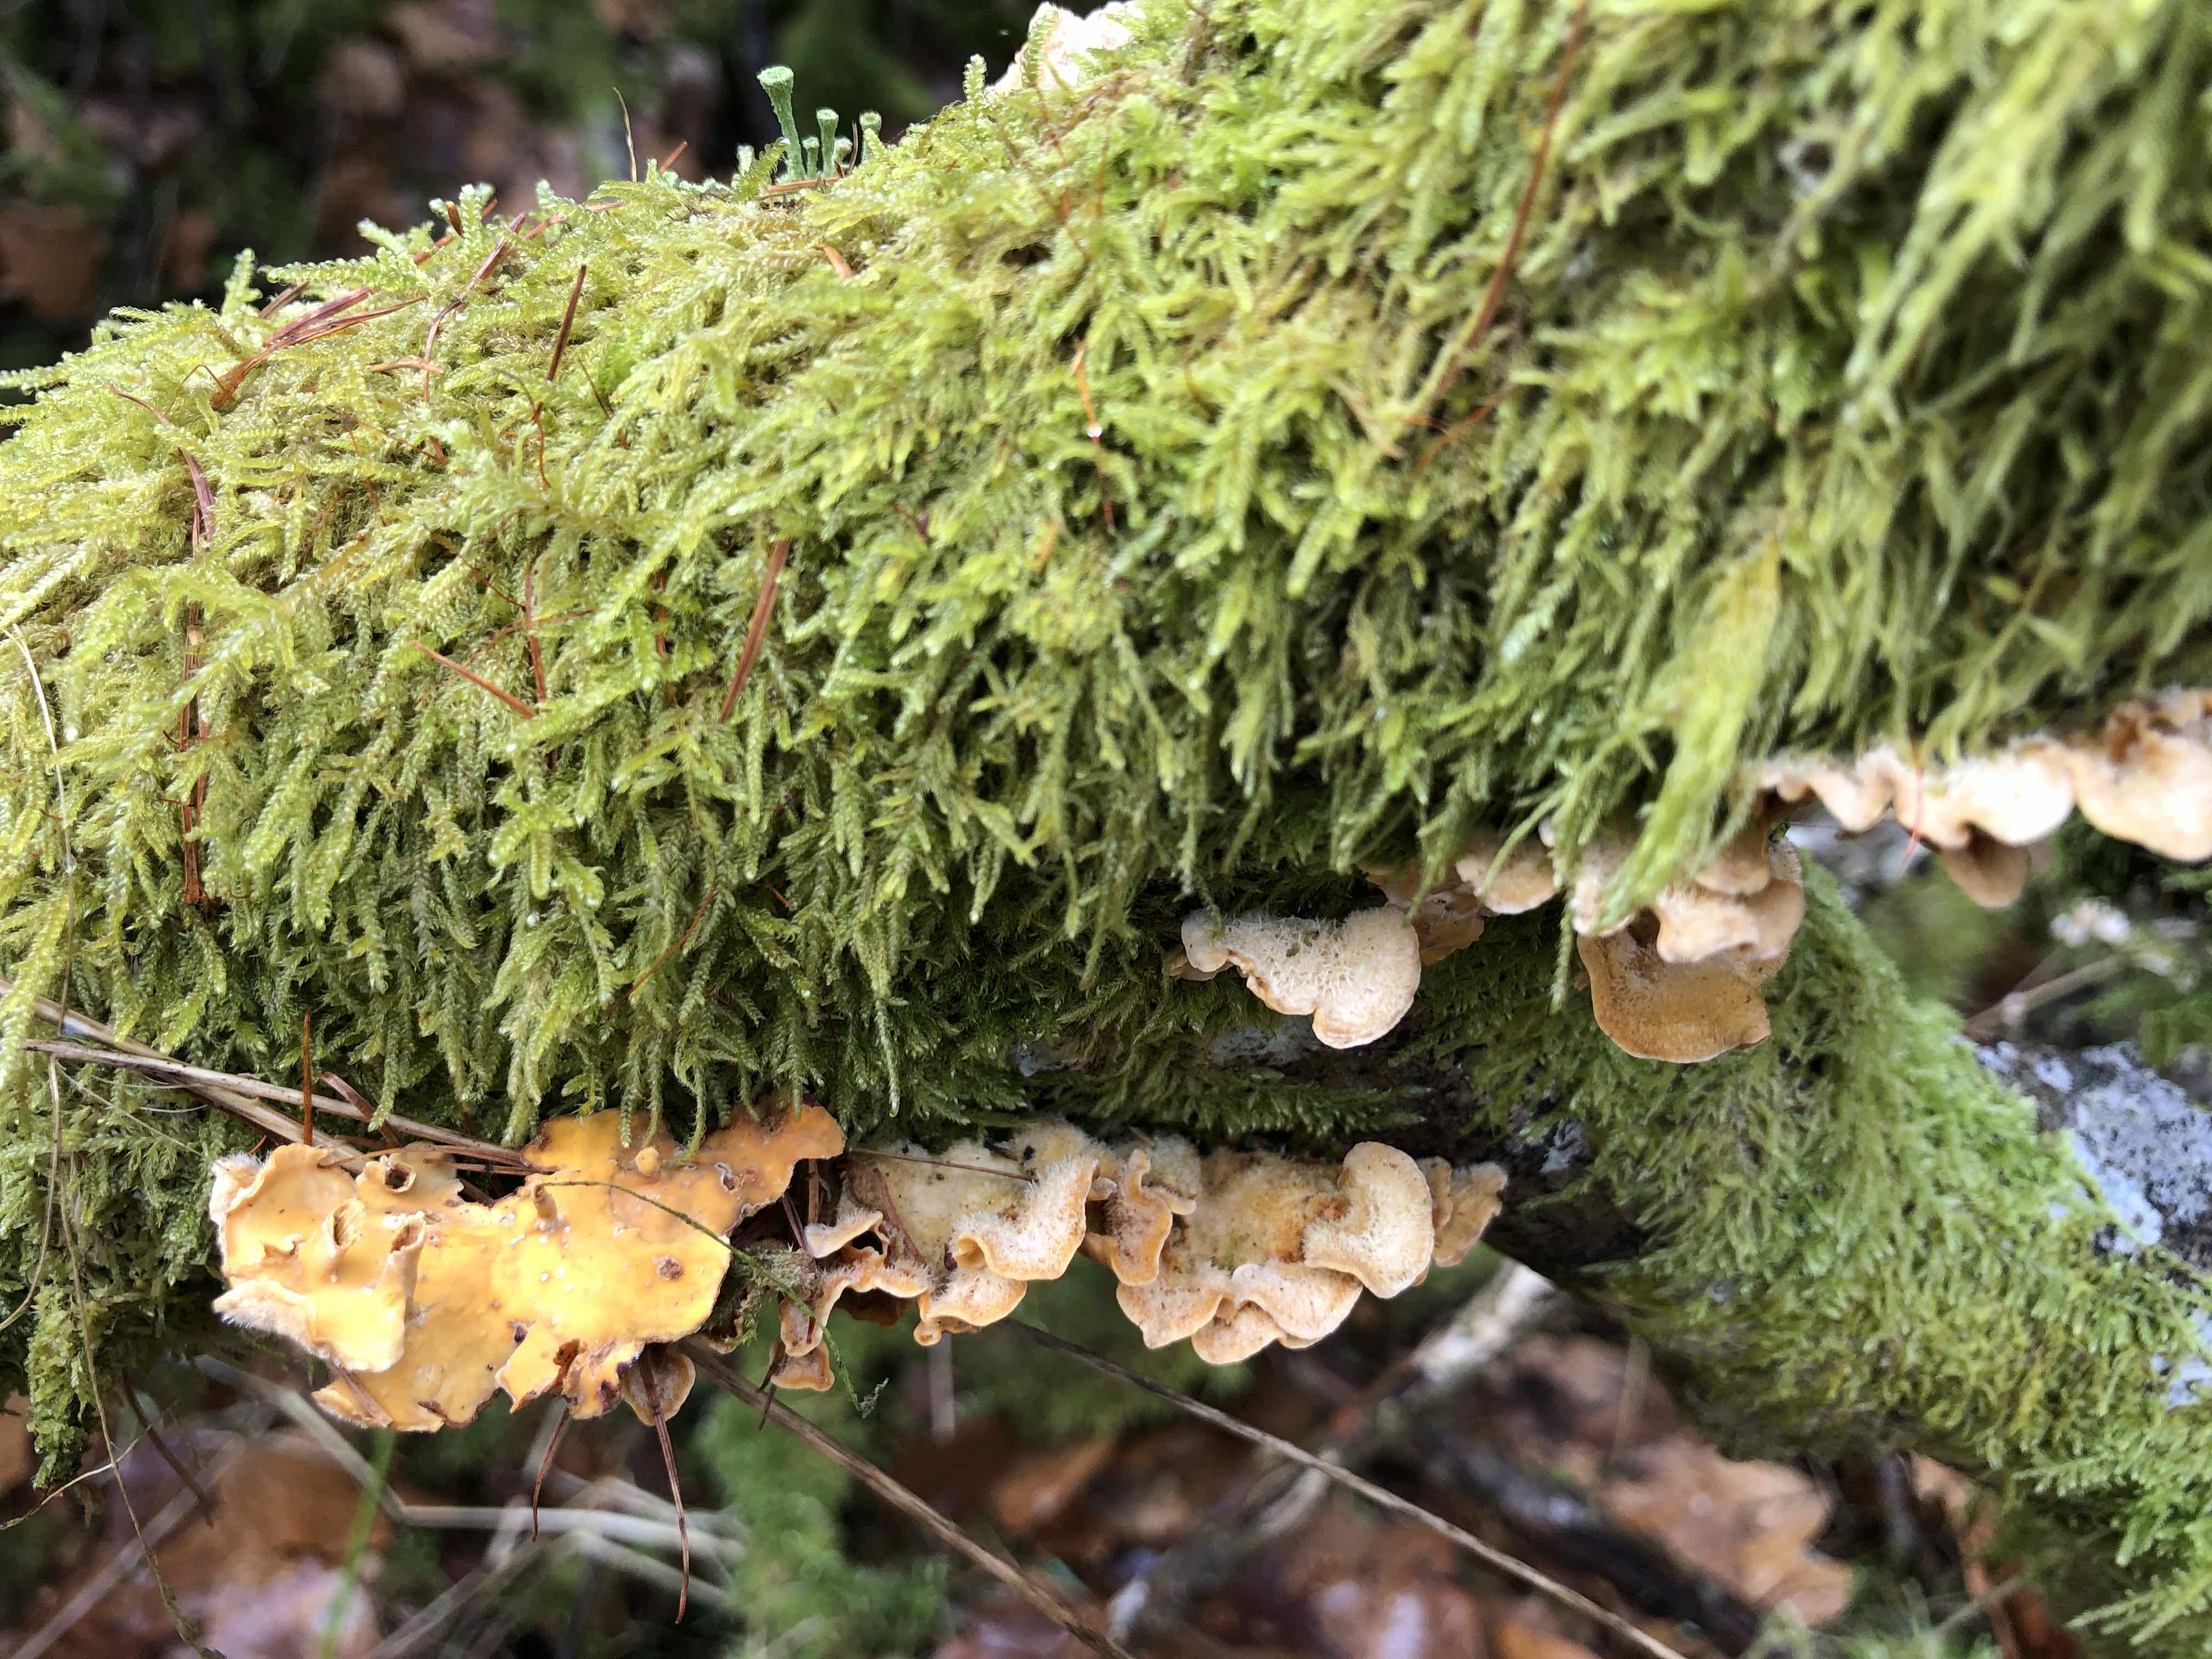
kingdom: Fungi
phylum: Basidiomycota
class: Agaricomycetes
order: Russulales
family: Stereaceae
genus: Stereum
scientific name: Stereum hirsutum
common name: håret lædersvamp
